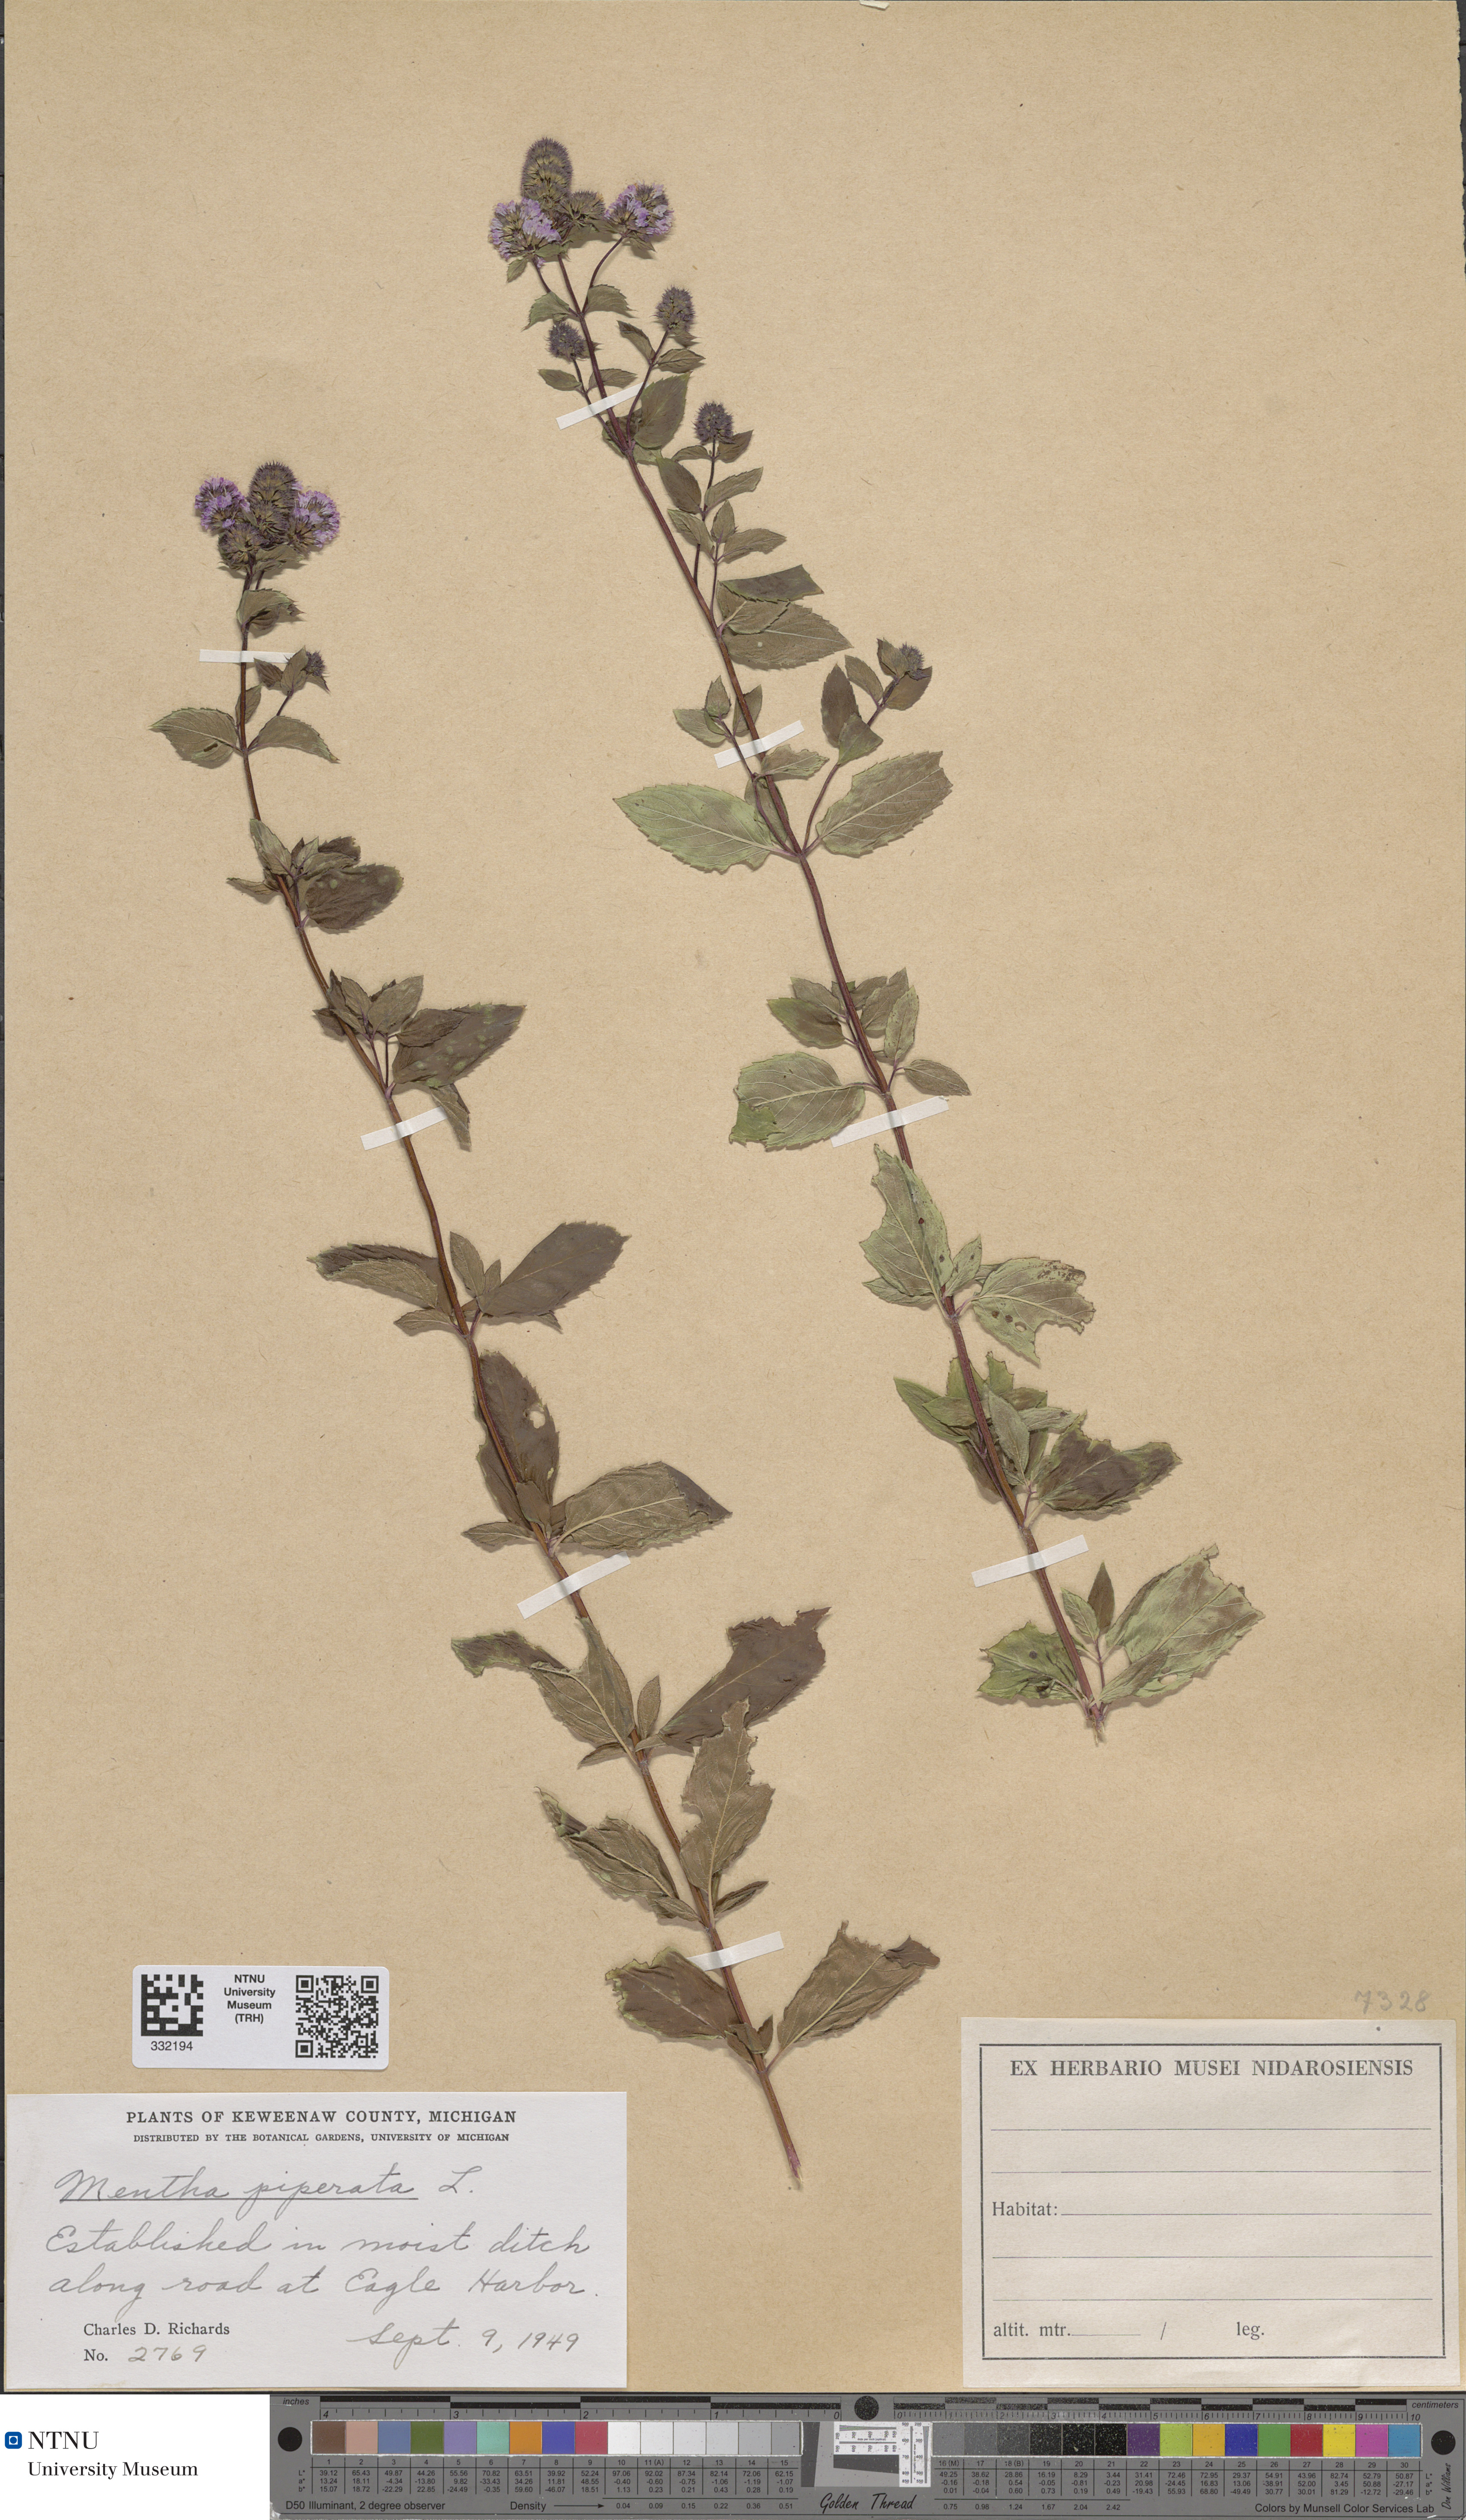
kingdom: Plantae
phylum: Tracheophyta
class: Magnoliopsida
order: Lamiales
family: Lamiaceae
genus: Mentha
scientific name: Mentha piperita
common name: Peppermint
